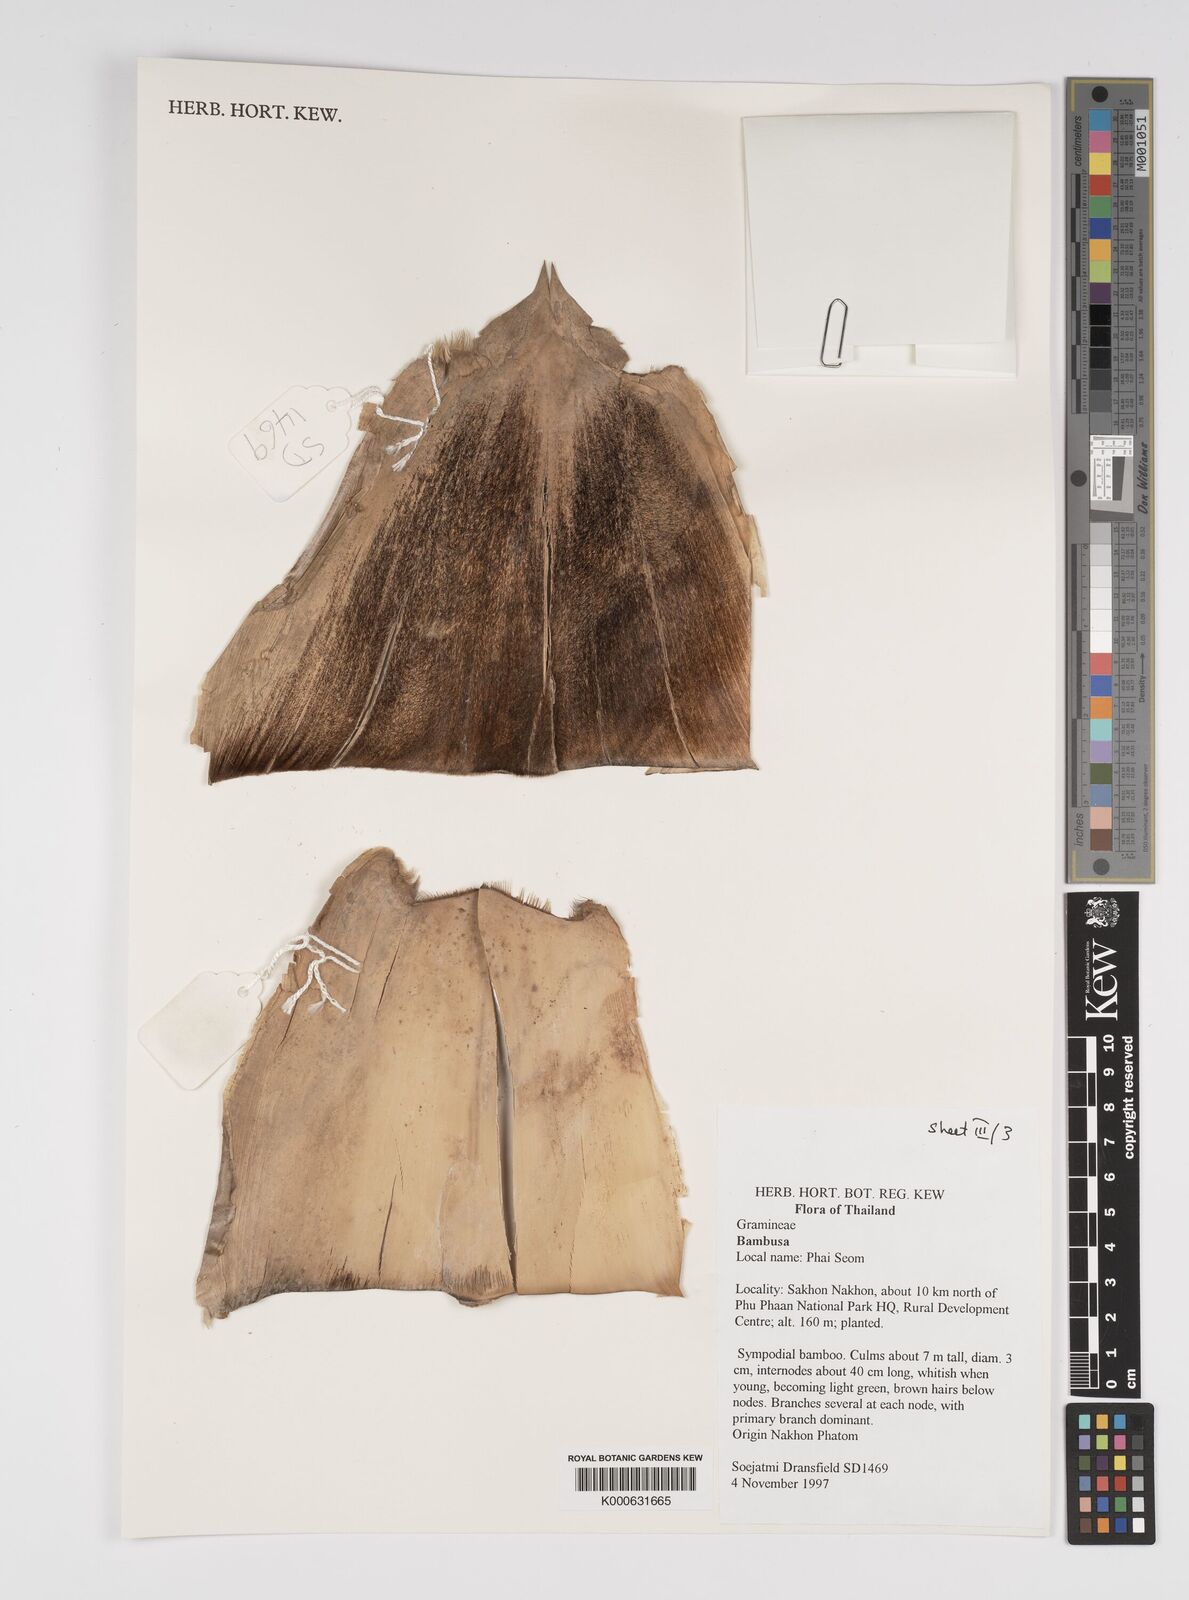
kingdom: Plantae
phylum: Tracheophyta
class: Liliopsida
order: Poales
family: Poaceae
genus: Bambusa
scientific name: Bambusa
